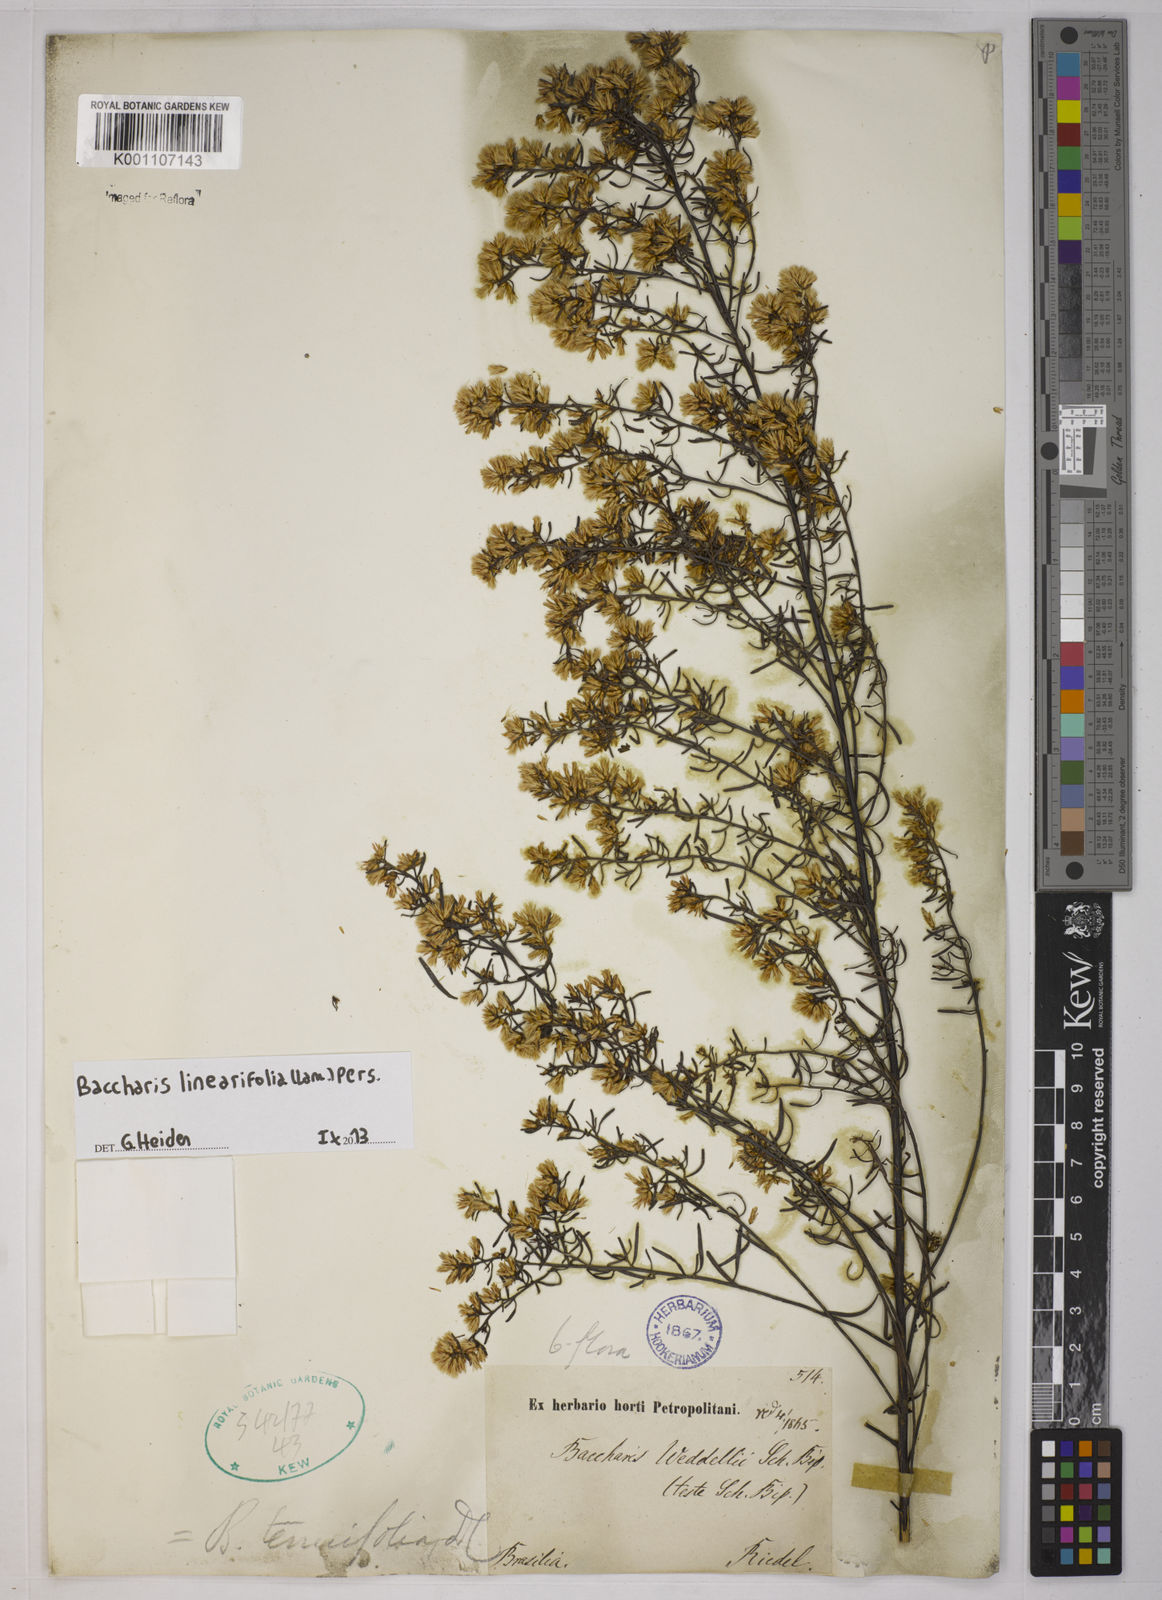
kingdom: Plantae
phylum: Tracheophyta
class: Magnoliopsida
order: Asterales
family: Asteraceae
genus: Baccharis
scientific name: Baccharis linearifolia
